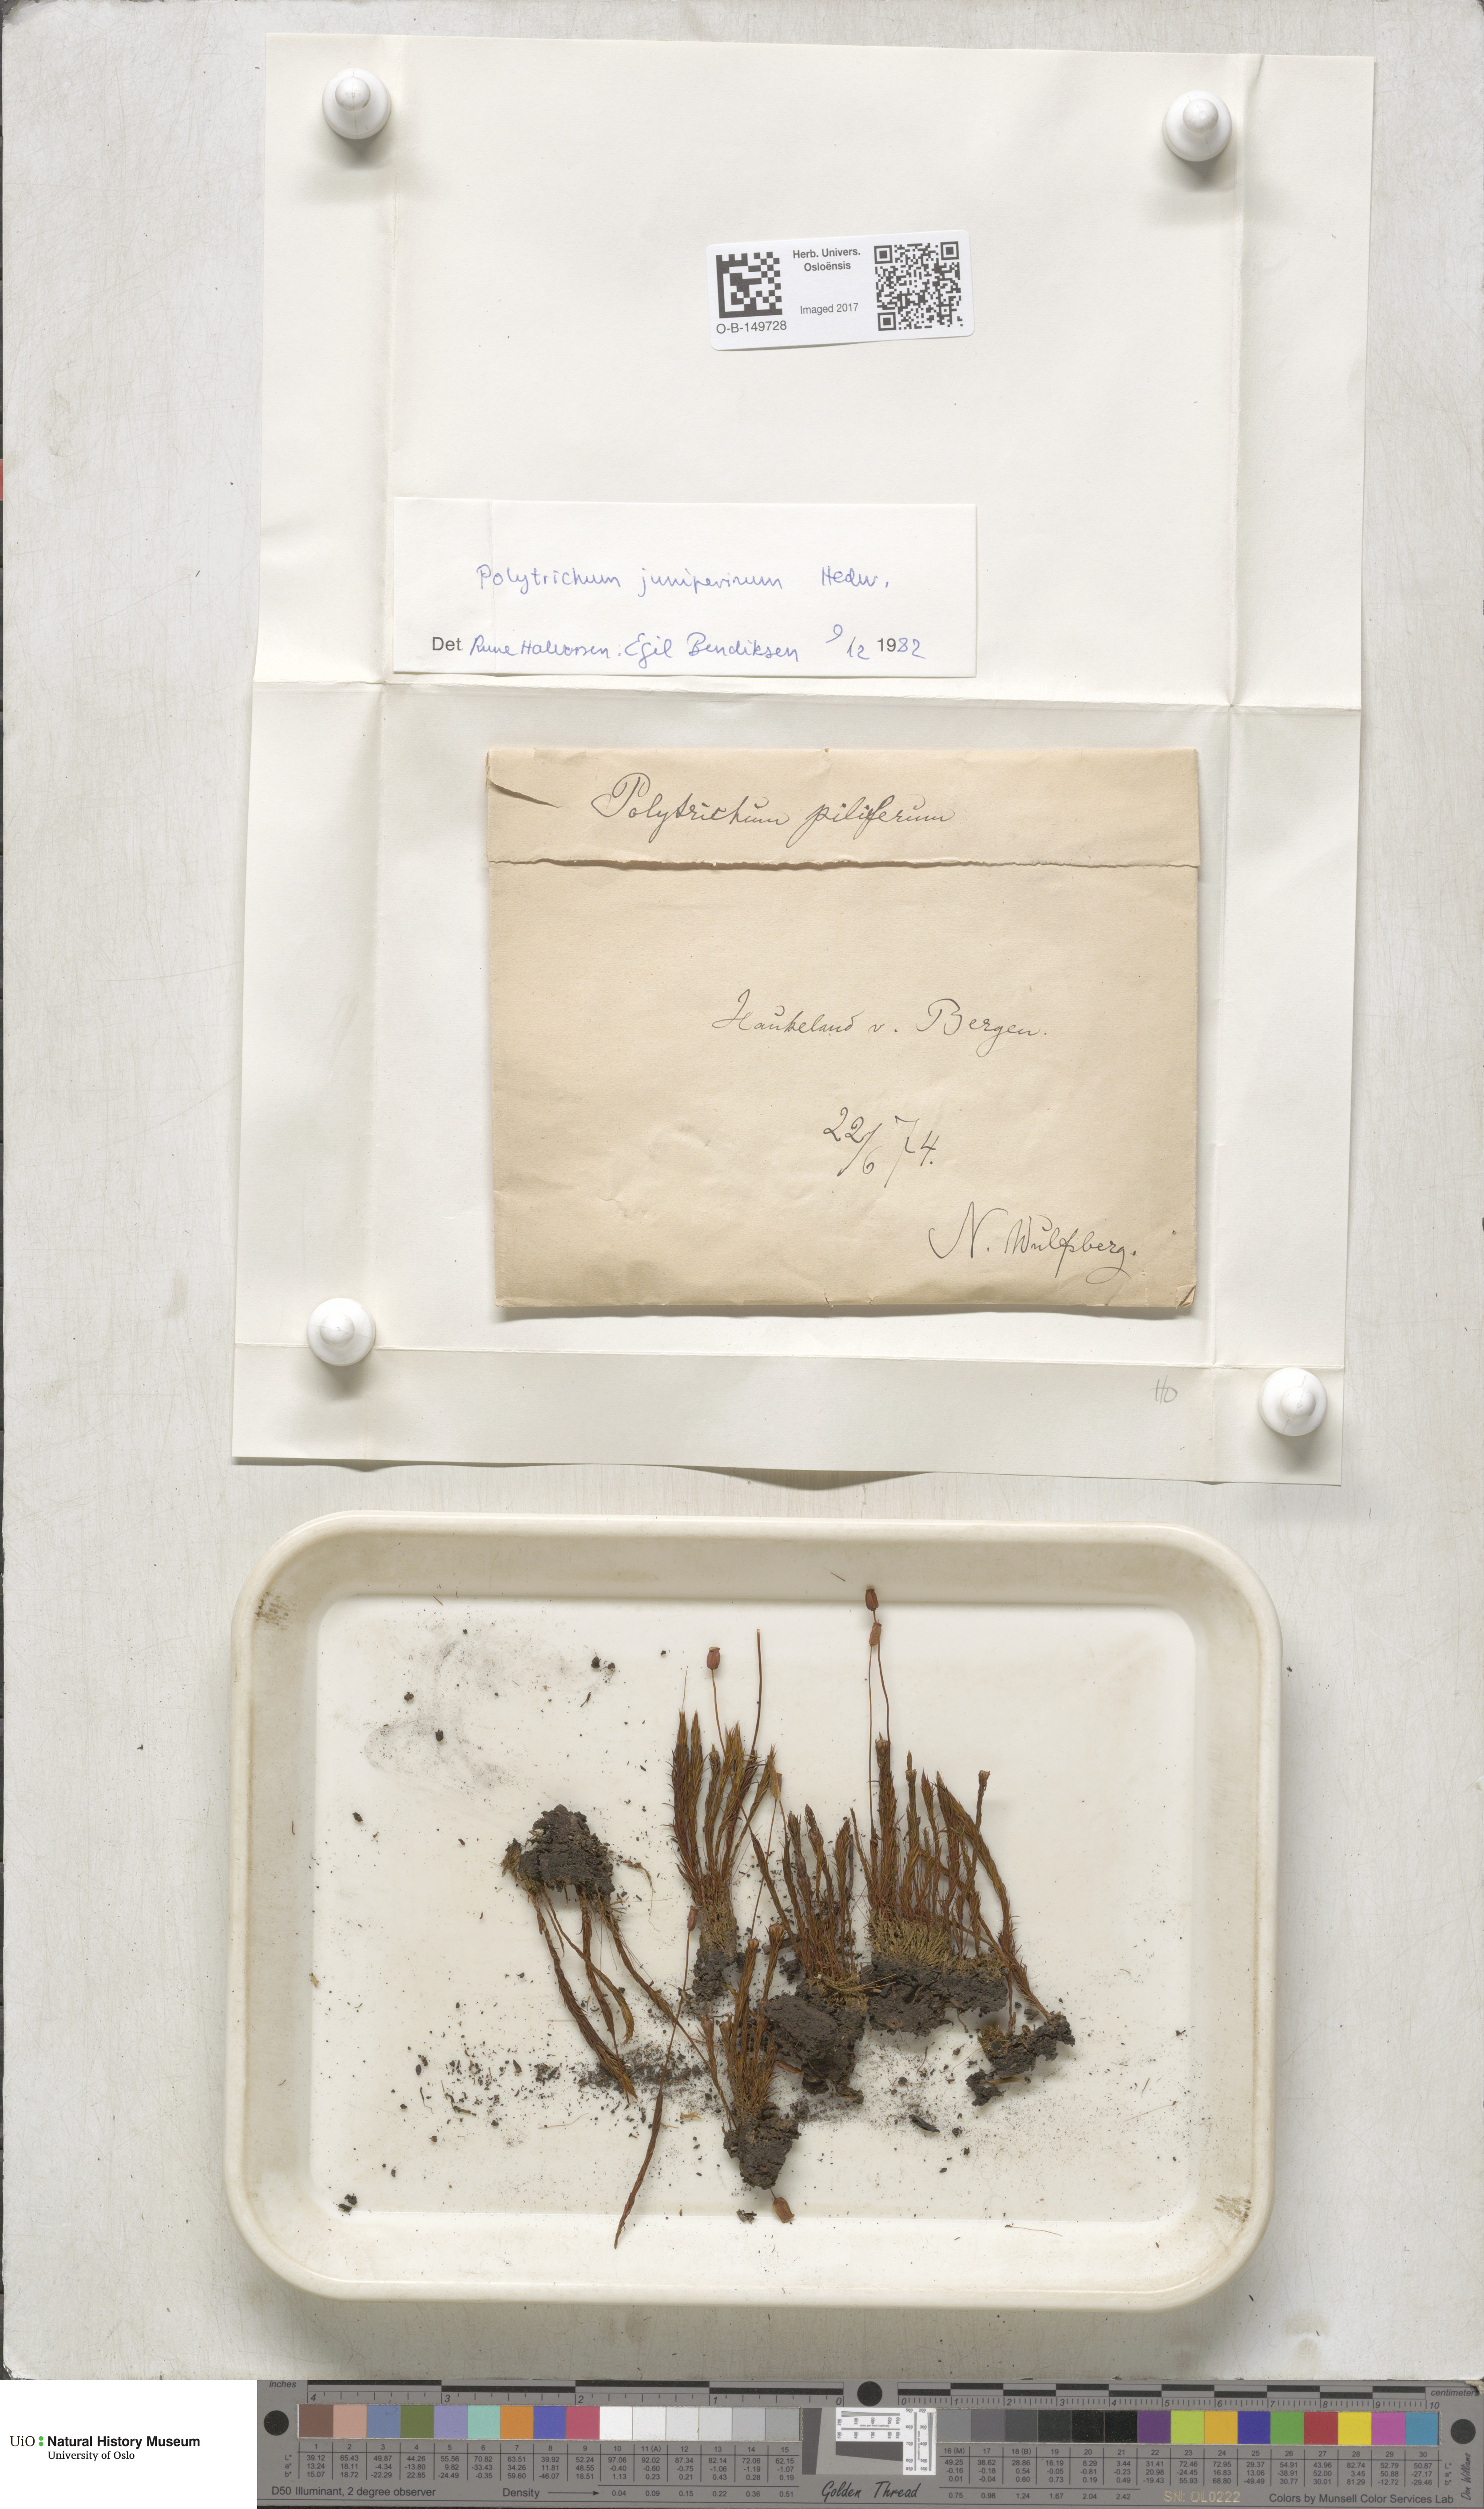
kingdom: Plantae
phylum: Bryophyta
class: Polytrichopsida
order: Polytrichales
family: Polytrichaceae
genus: Polytrichum
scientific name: Polytrichum juniperinum
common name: Juniper haircap moss
